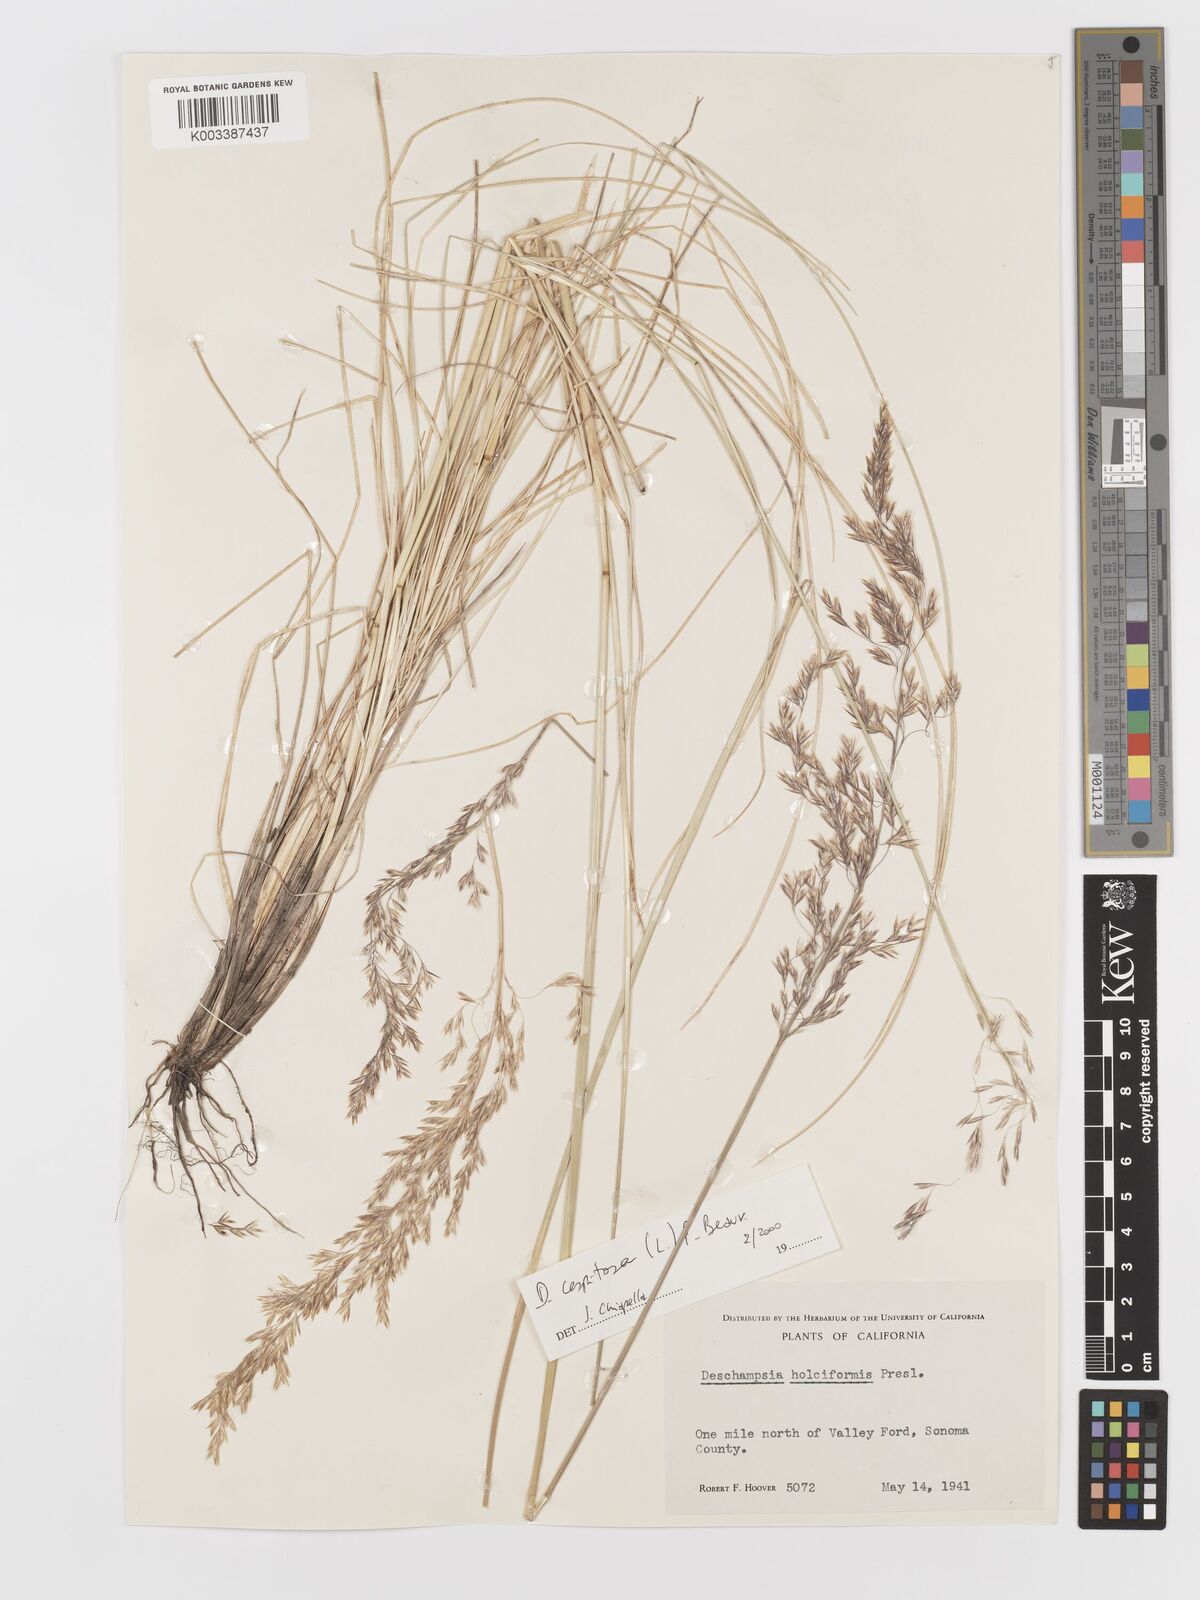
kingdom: Plantae
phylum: Tracheophyta
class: Liliopsida
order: Poales
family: Poaceae
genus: Deschampsia
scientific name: Deschampsia cespitosa
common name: Tufted hair-grass
